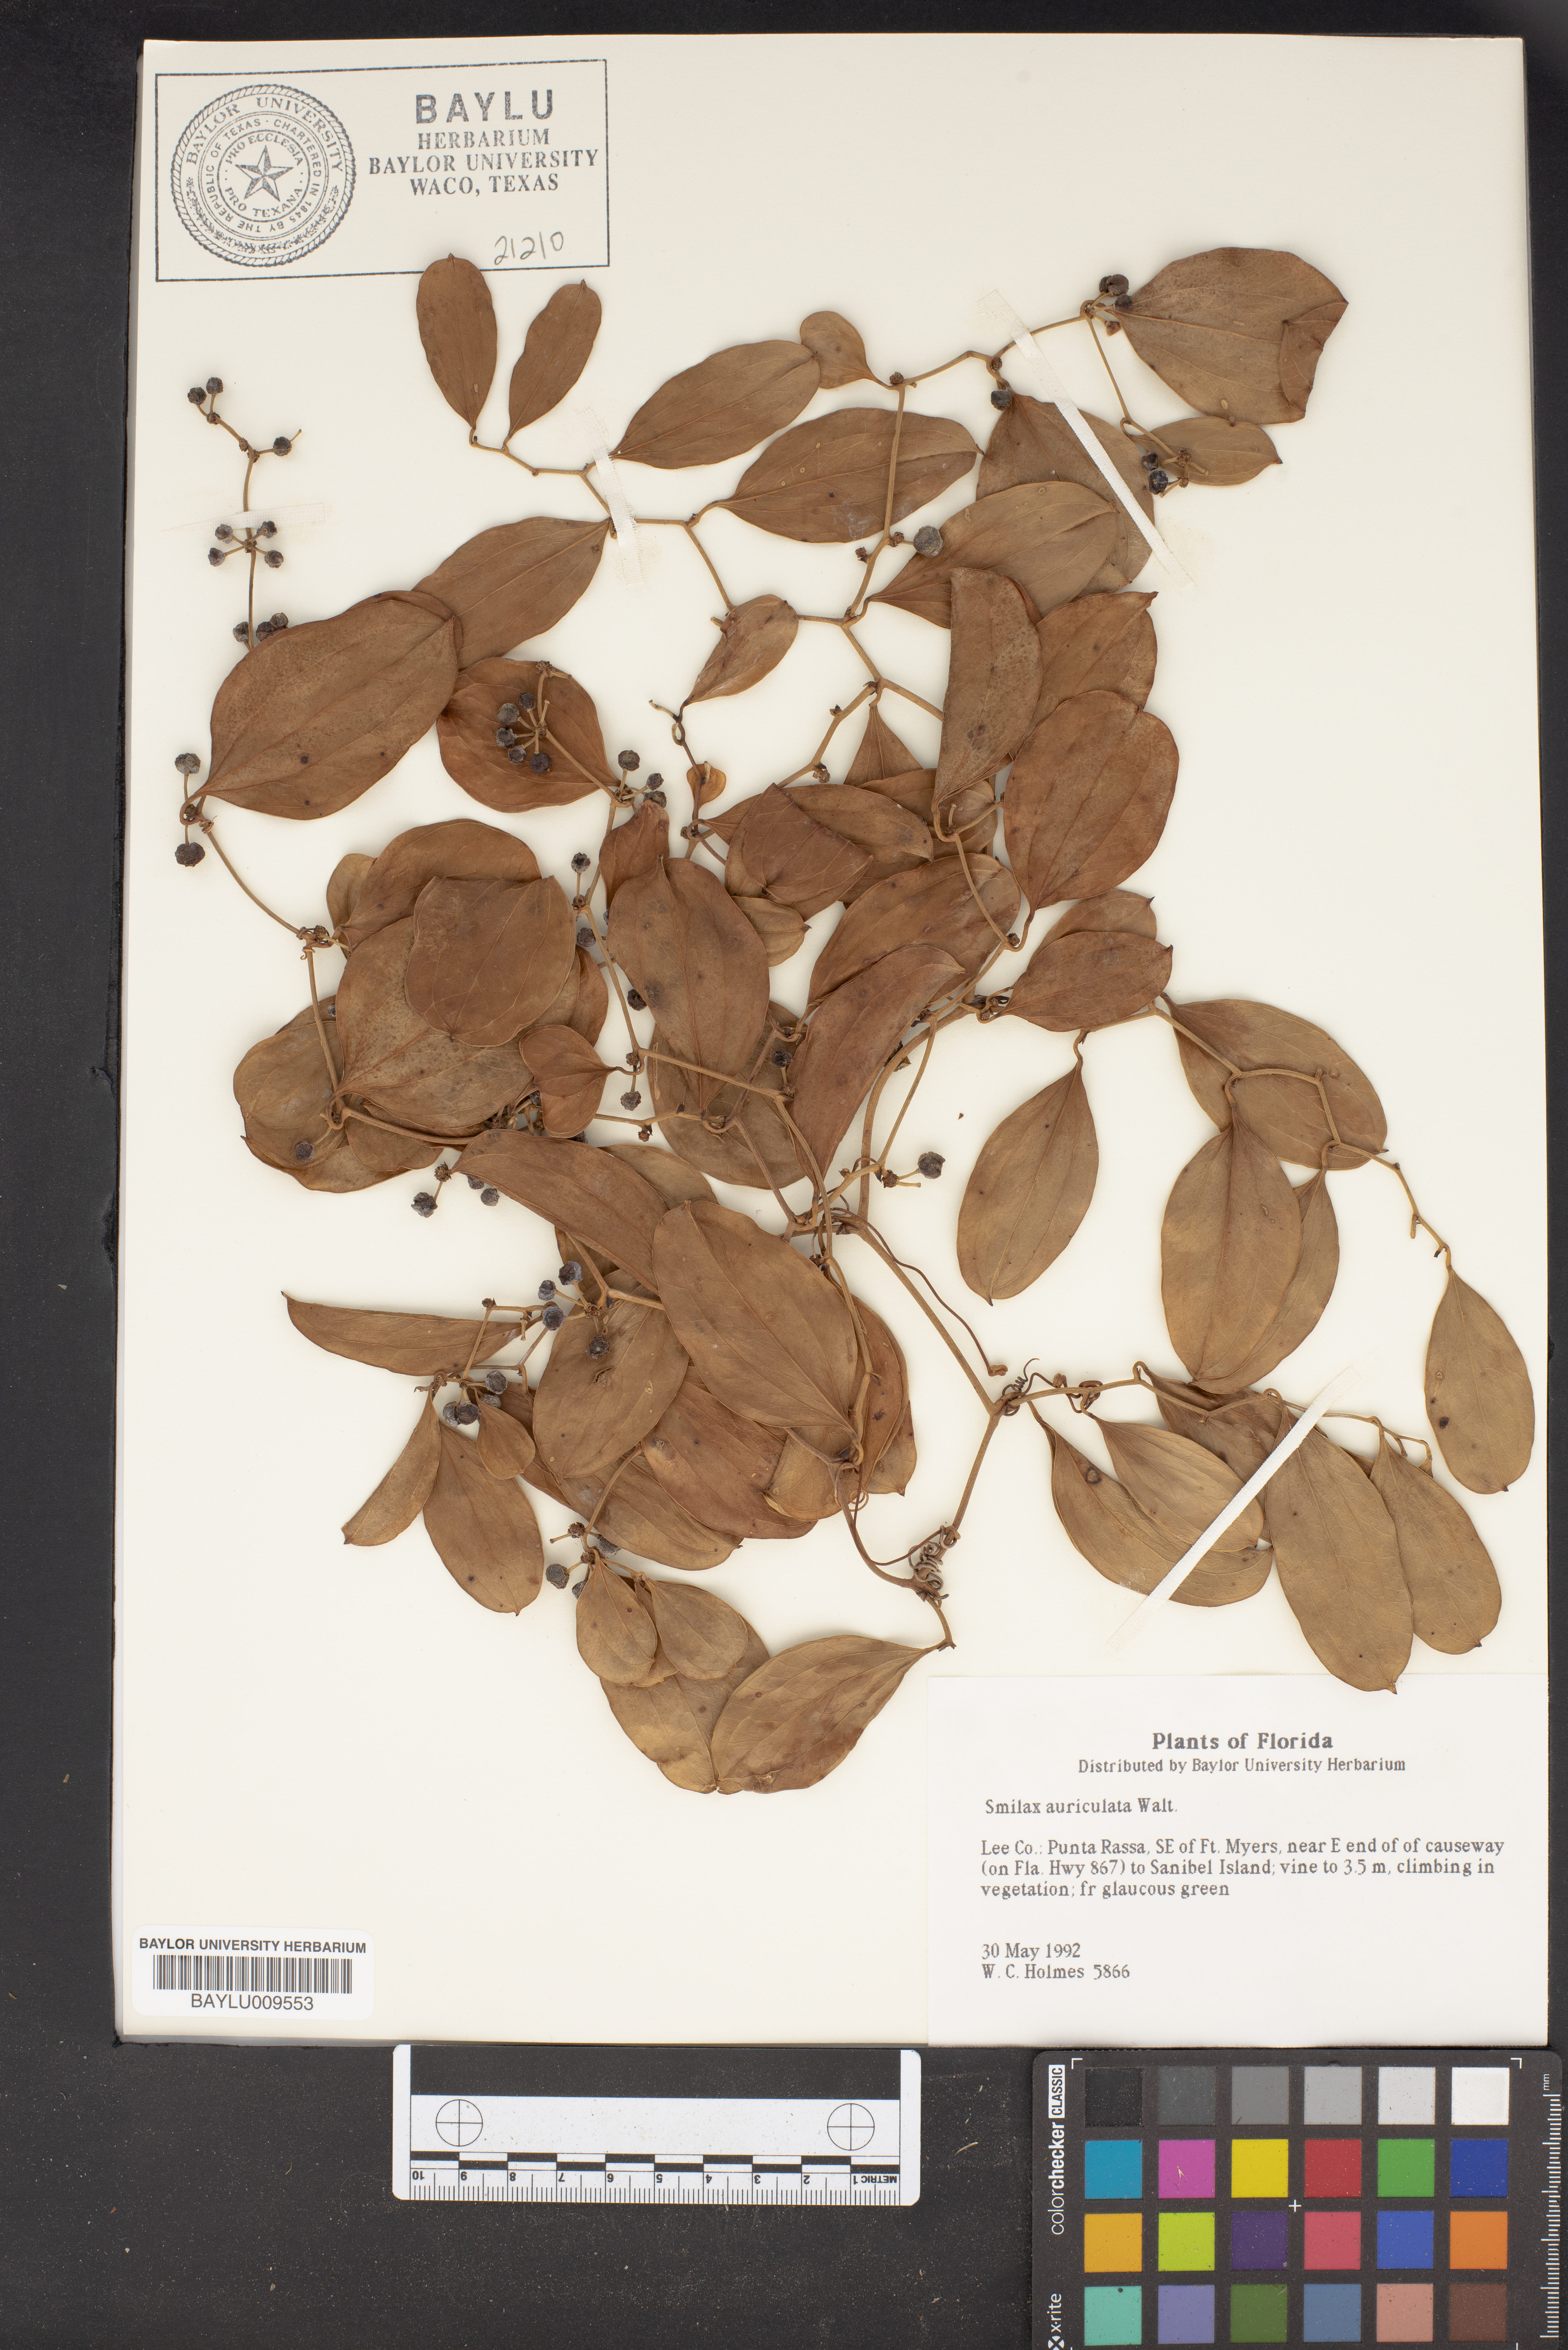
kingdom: Plantae
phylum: Tracheophyta
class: Liliopsida
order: Liliales
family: Smilacaceae
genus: Smilax
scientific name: Smilax auriculata
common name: Wild bamboo
